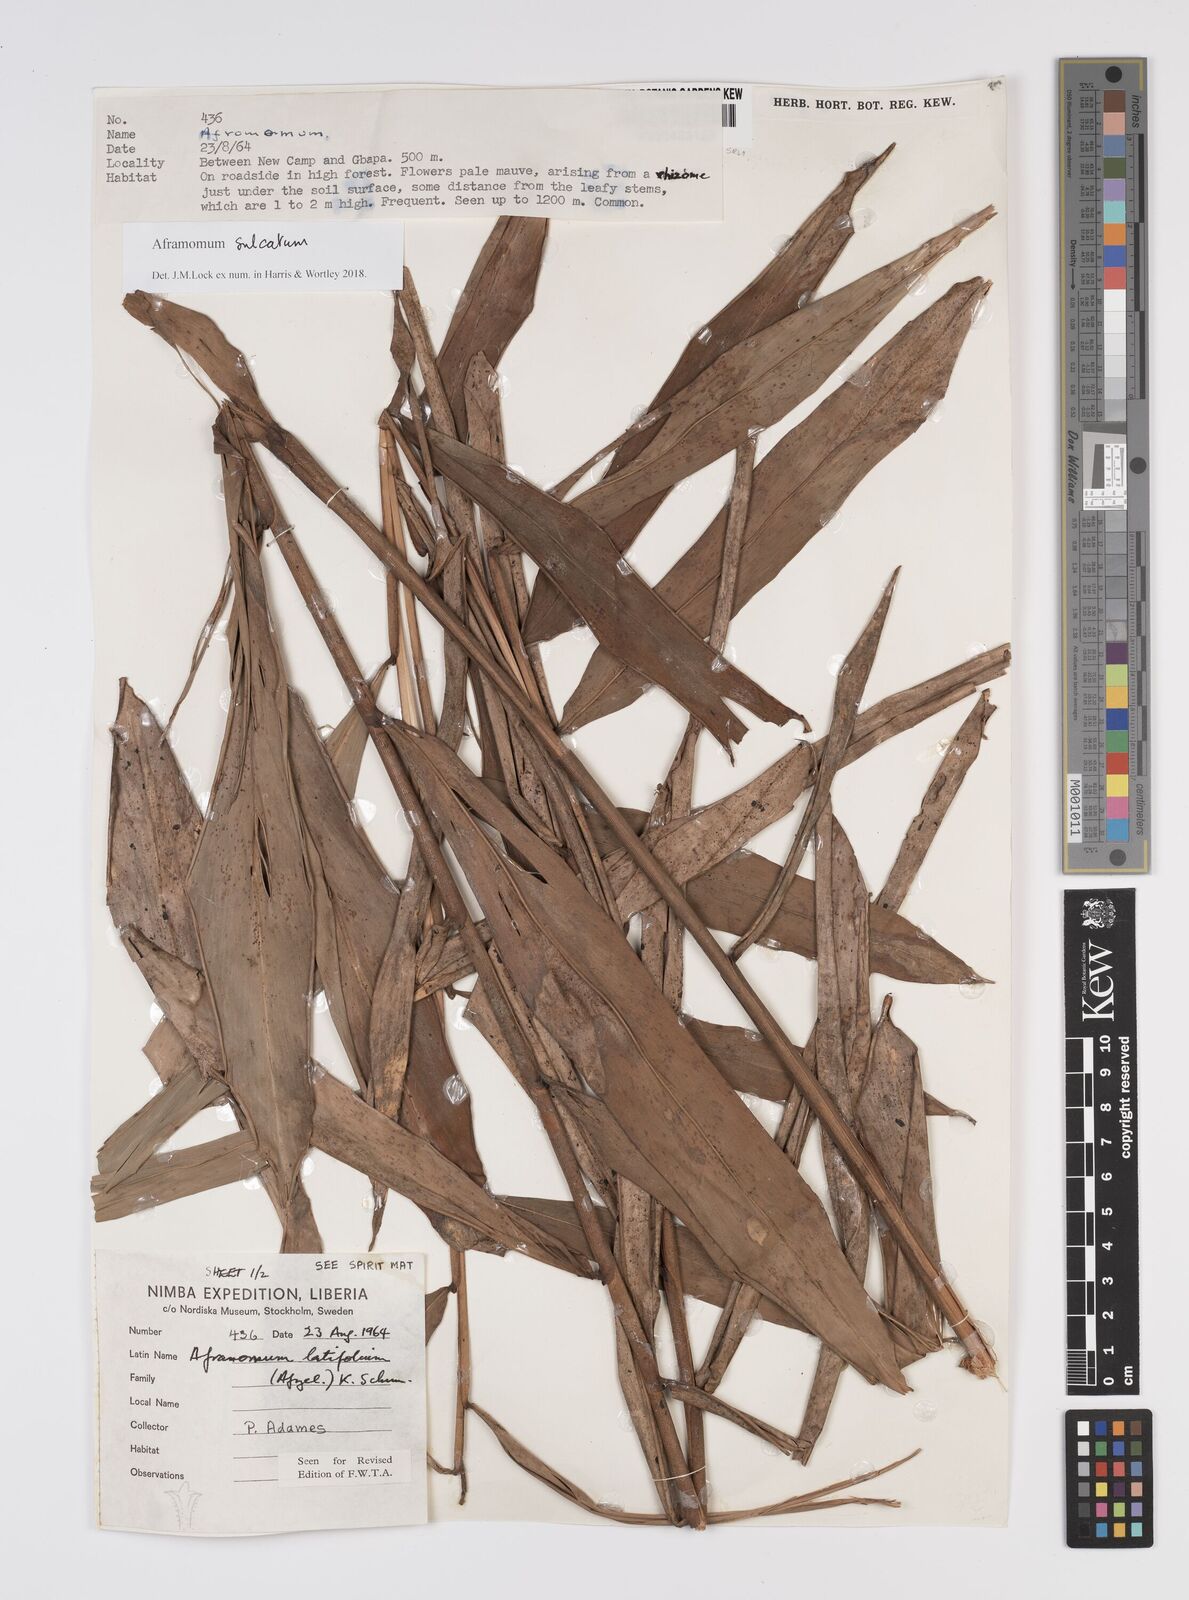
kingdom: Plantae
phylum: Tracheophyta
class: Liliopsida
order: Zingiberales
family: Zingiberaceae
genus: Aframomum
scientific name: Aframomum sulcatum
